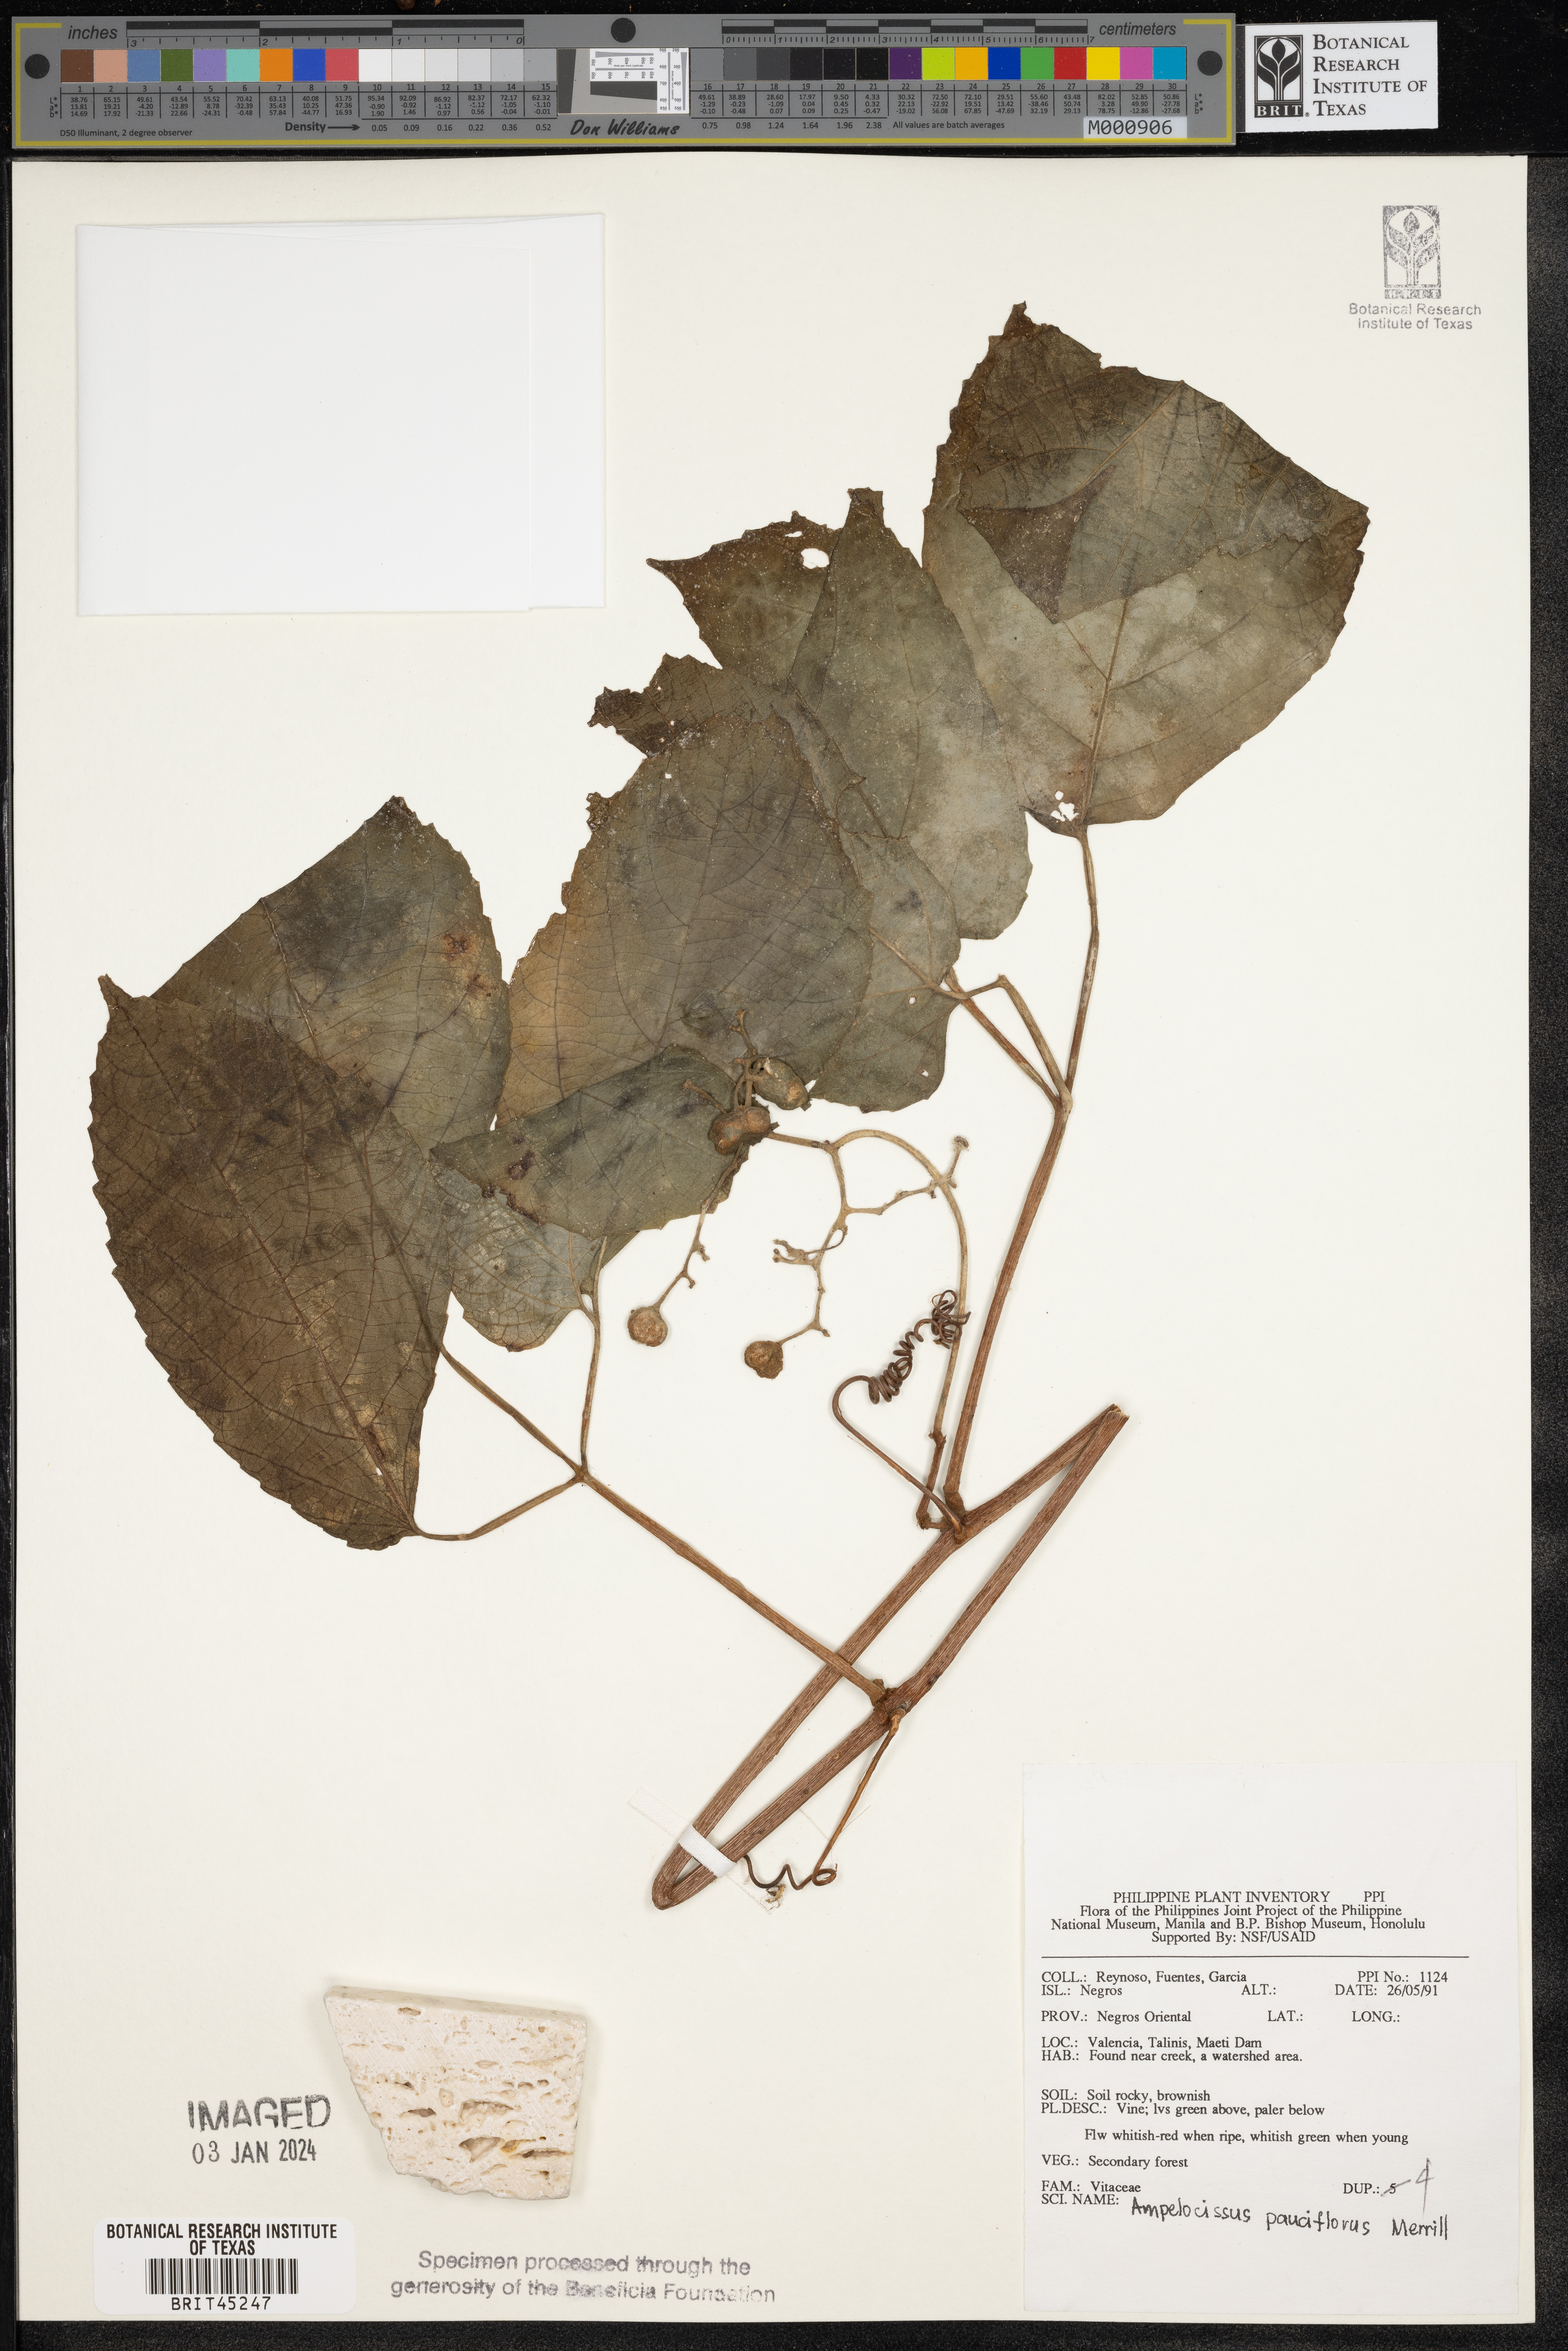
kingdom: Plantae
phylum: Tracheophyta
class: Magnoliopsida
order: Vitales
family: Vitaceae
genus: Ampelocissus
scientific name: Ampelocissus pauciflora
